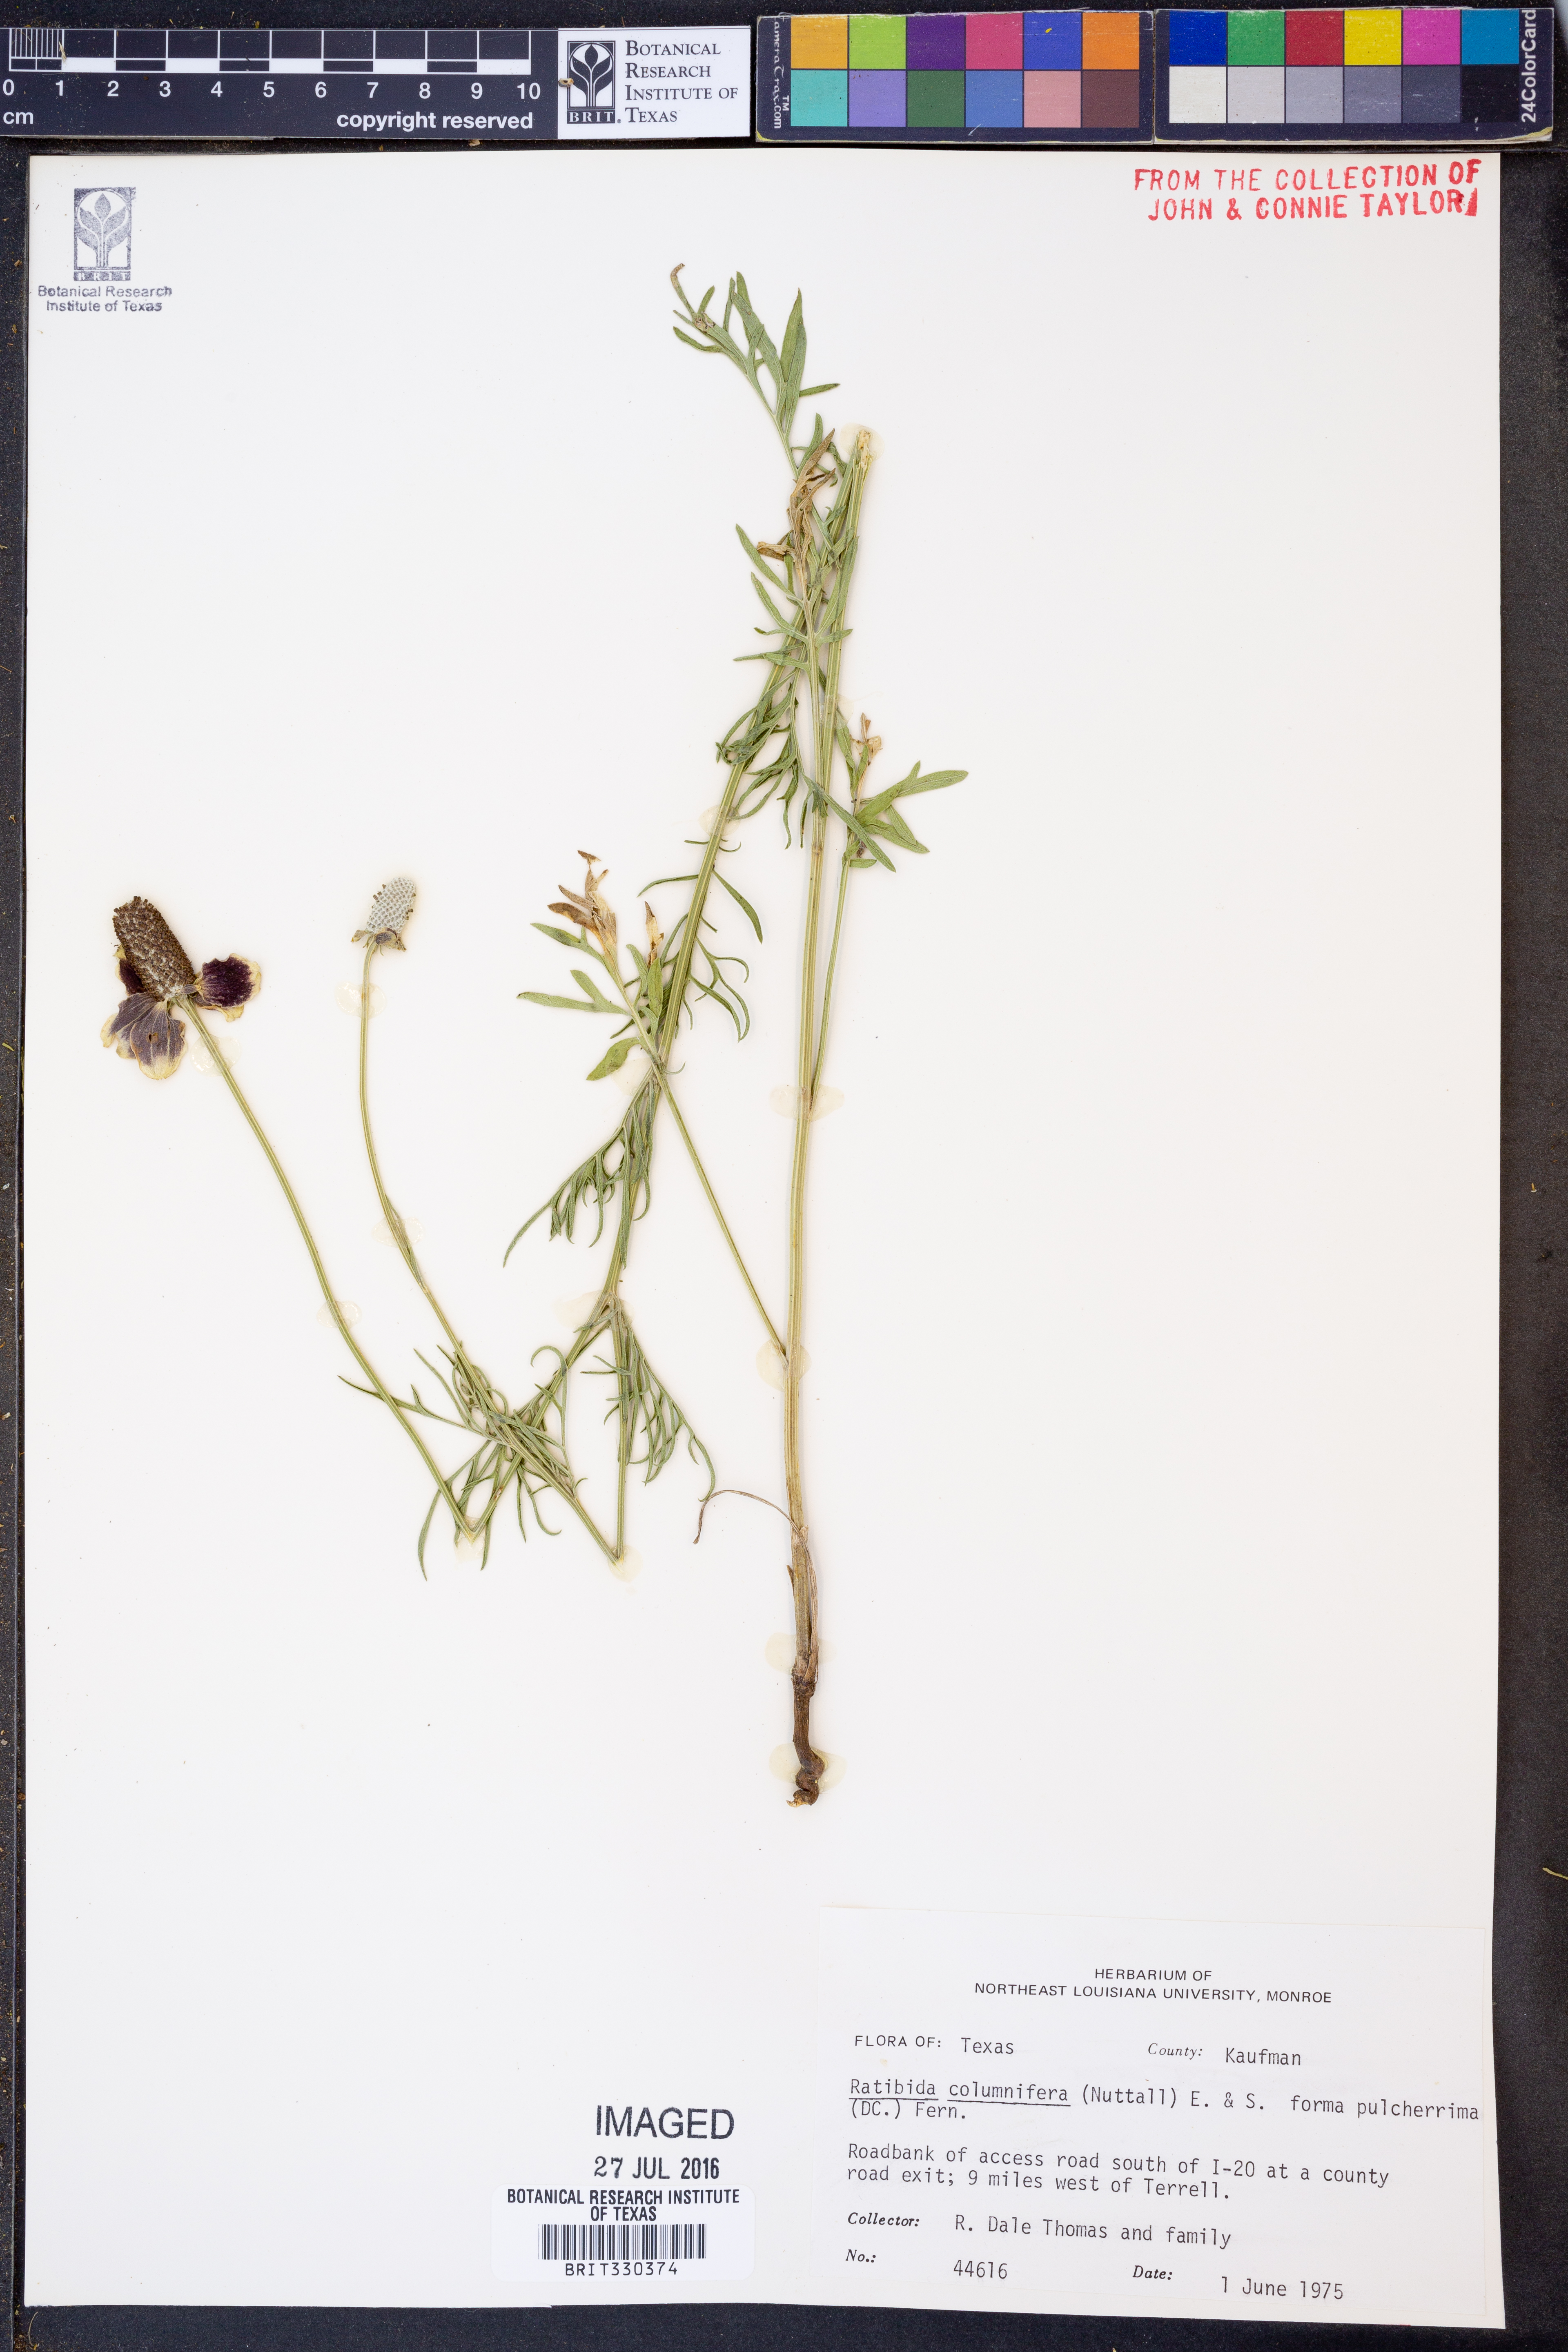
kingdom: Plantae
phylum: Tracheophyta
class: Magnoliopsida
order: Asterales
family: Asteraceae
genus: Ratibida
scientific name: Ratibida columnifera
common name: Prairie coneflower
